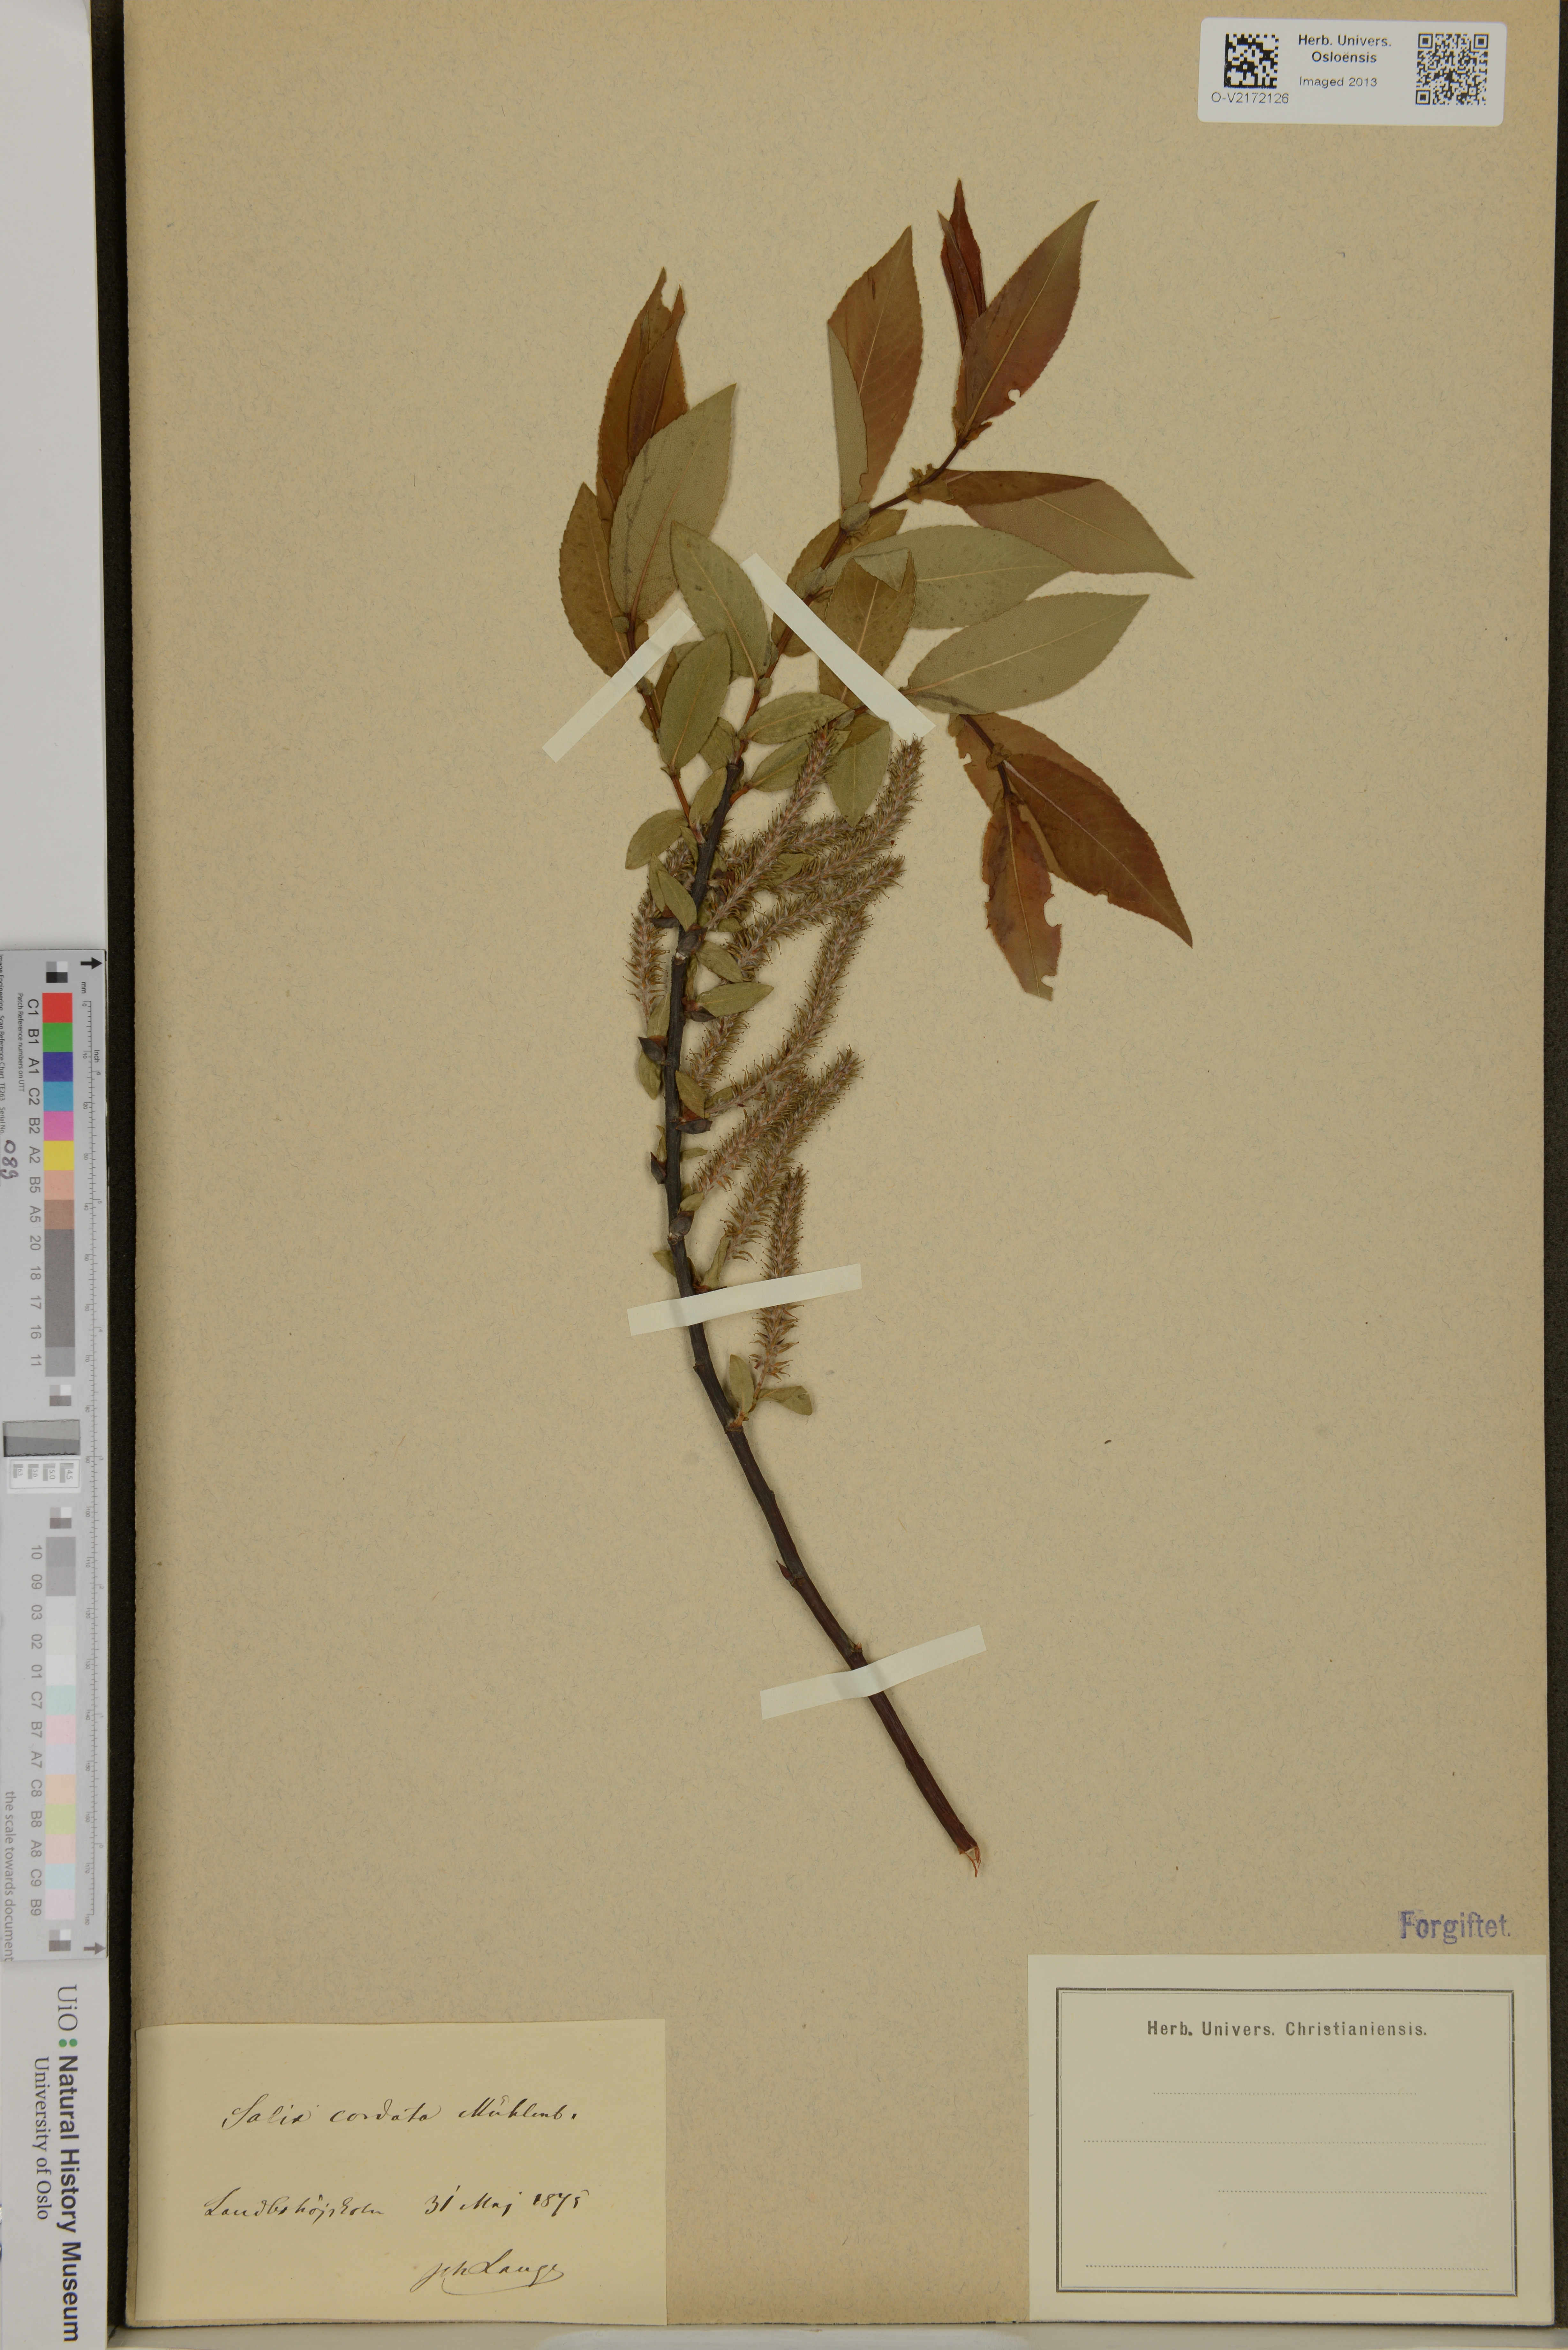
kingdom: Plantae
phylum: Tracheophyta
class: Magnoliopsida
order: Malpighiales
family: Salicaceae
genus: Salix
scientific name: Salix cordata
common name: Heart-leaf willow
